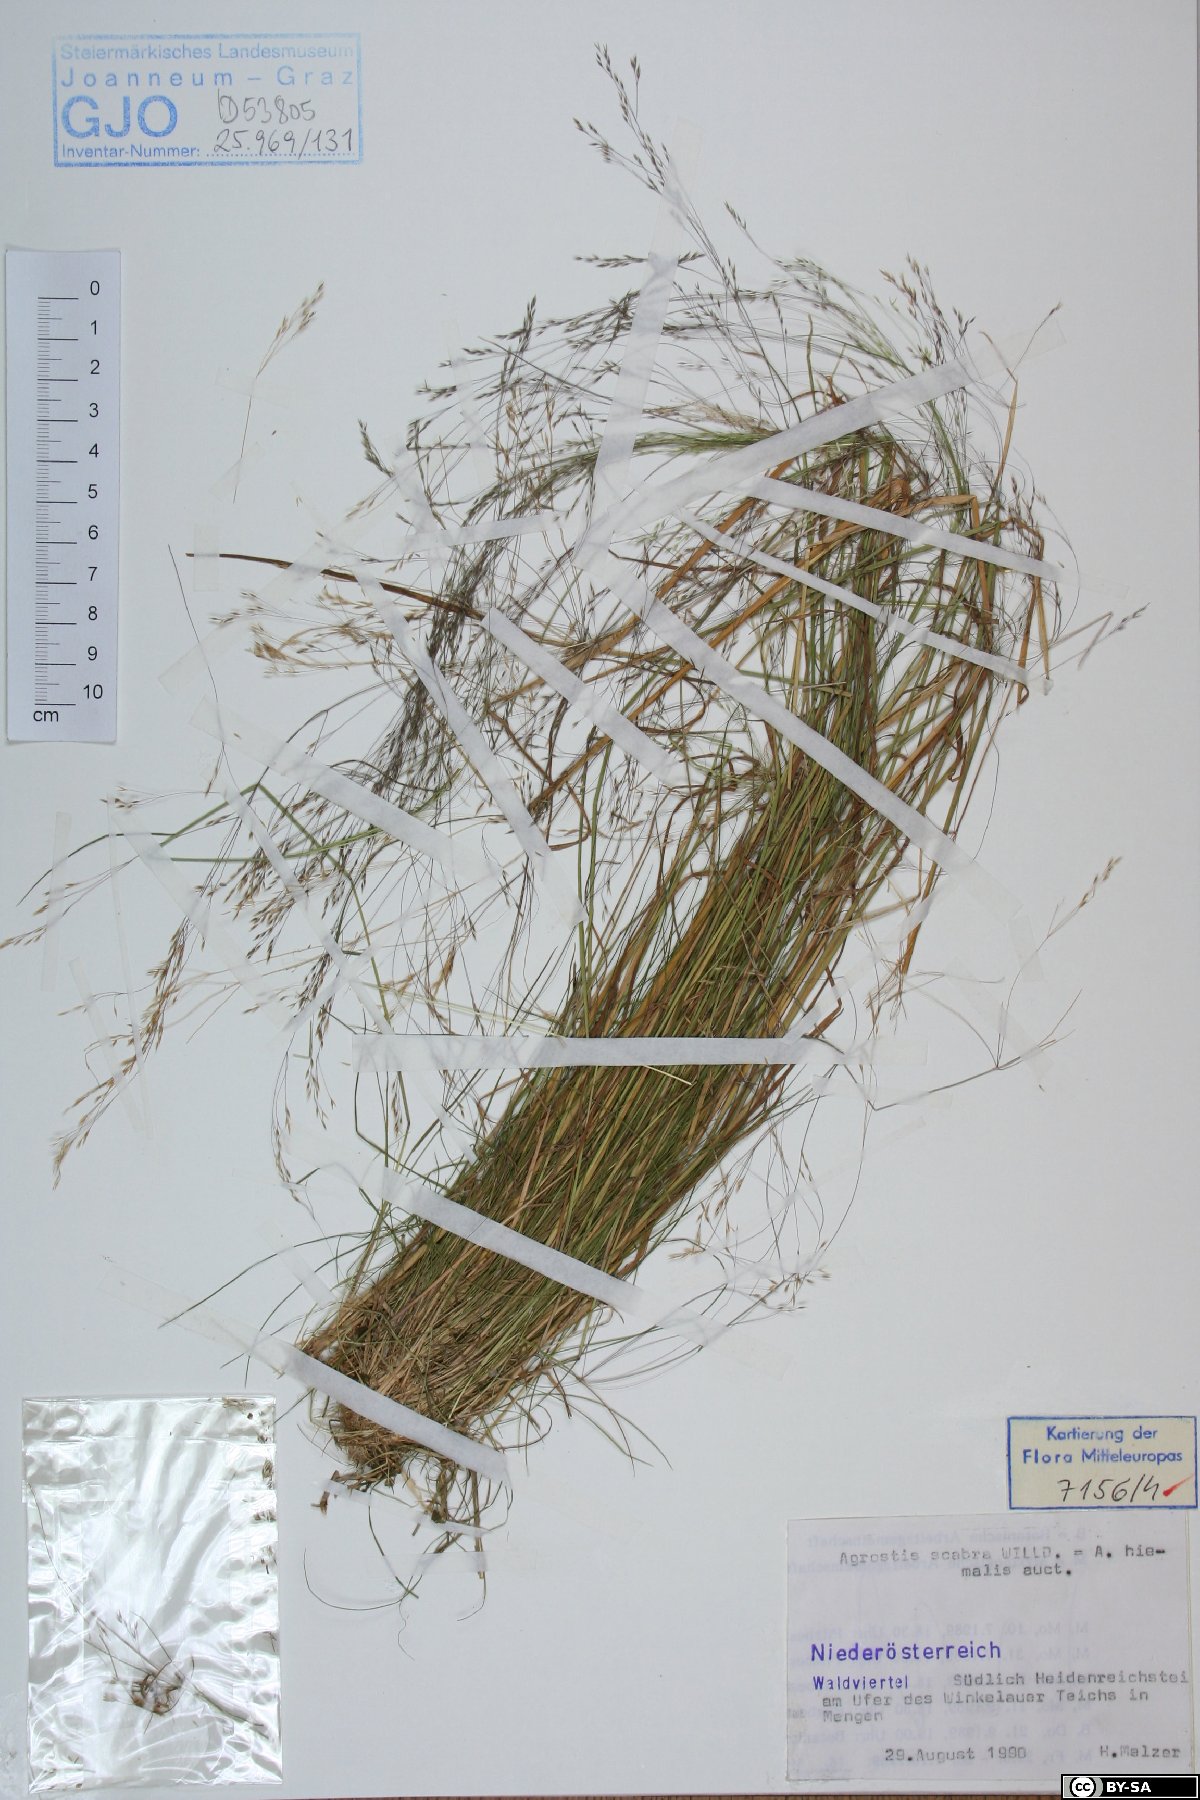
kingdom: Plantae
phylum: Tracheophyta
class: Liliopsida
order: Poales
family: Poaceae
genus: Agrostis
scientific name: Agrostis scabra
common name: Rough bent
